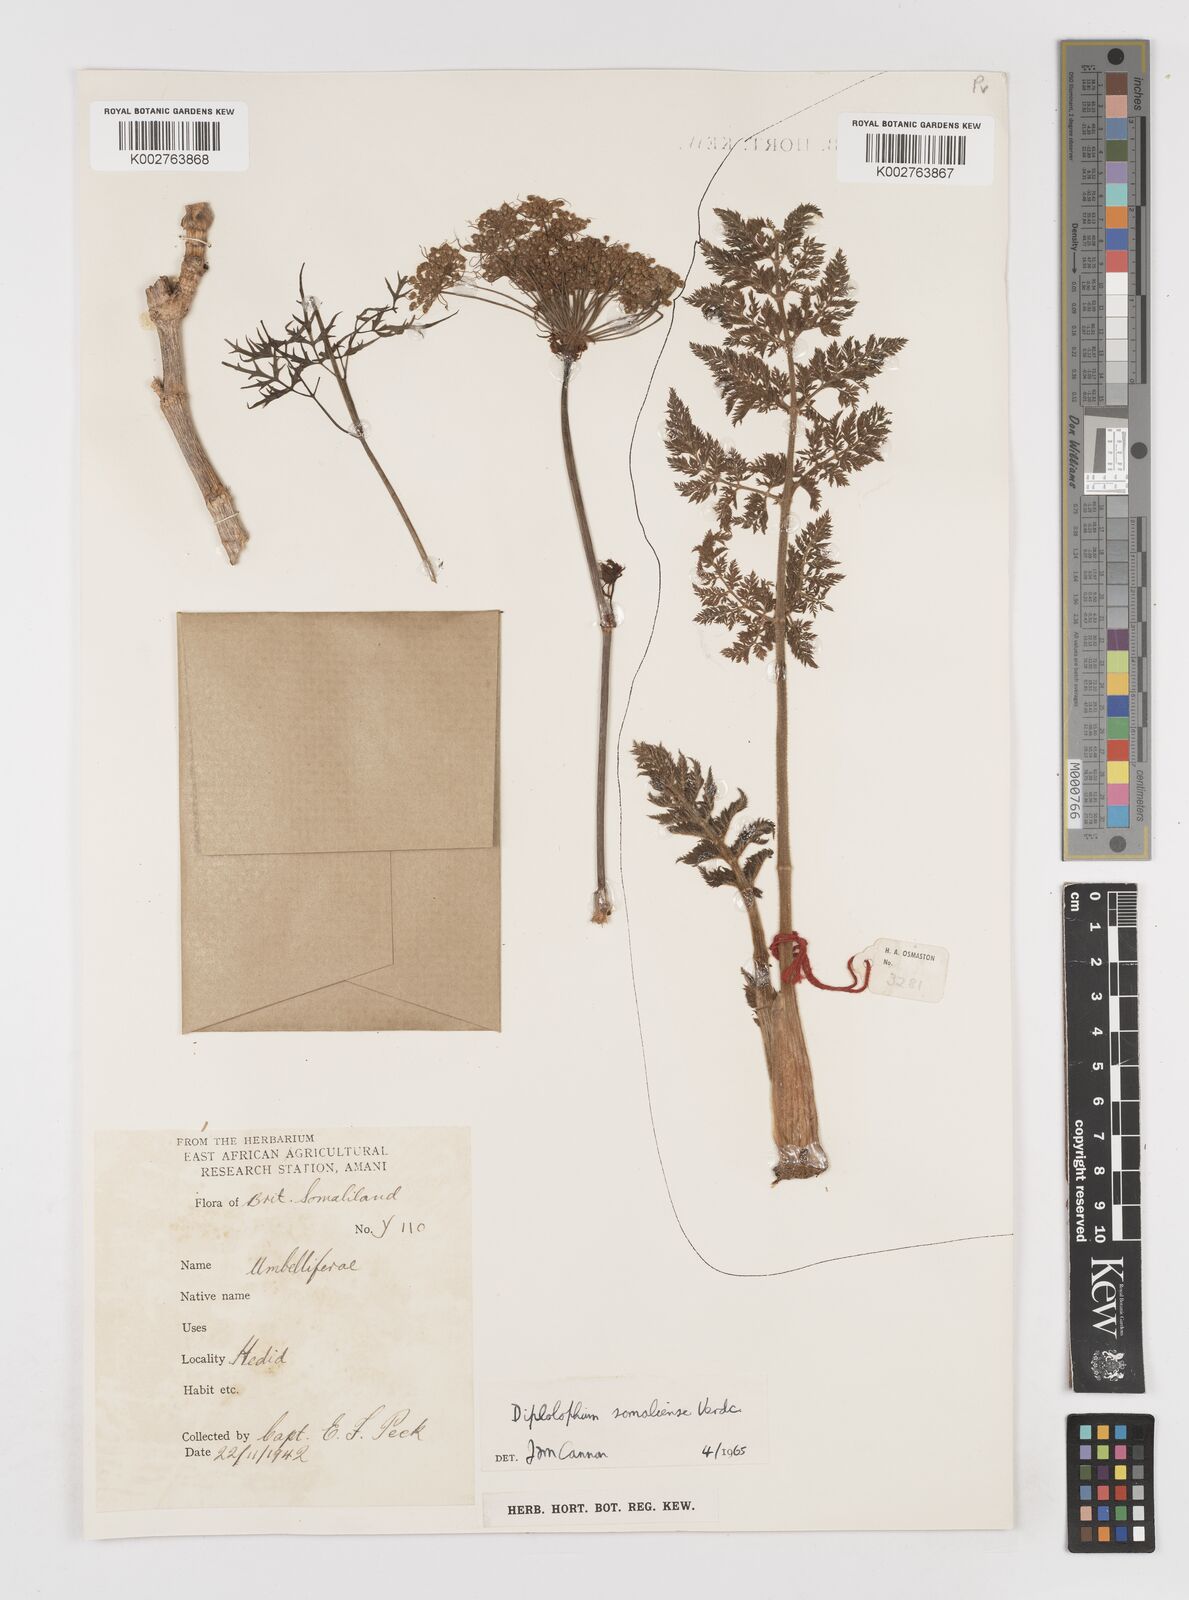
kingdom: Plantae
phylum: Tracheophyta
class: Magnoliopsida
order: Apiales
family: Apiaceae
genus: Diplolophium
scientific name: Diplolophium somaliense
